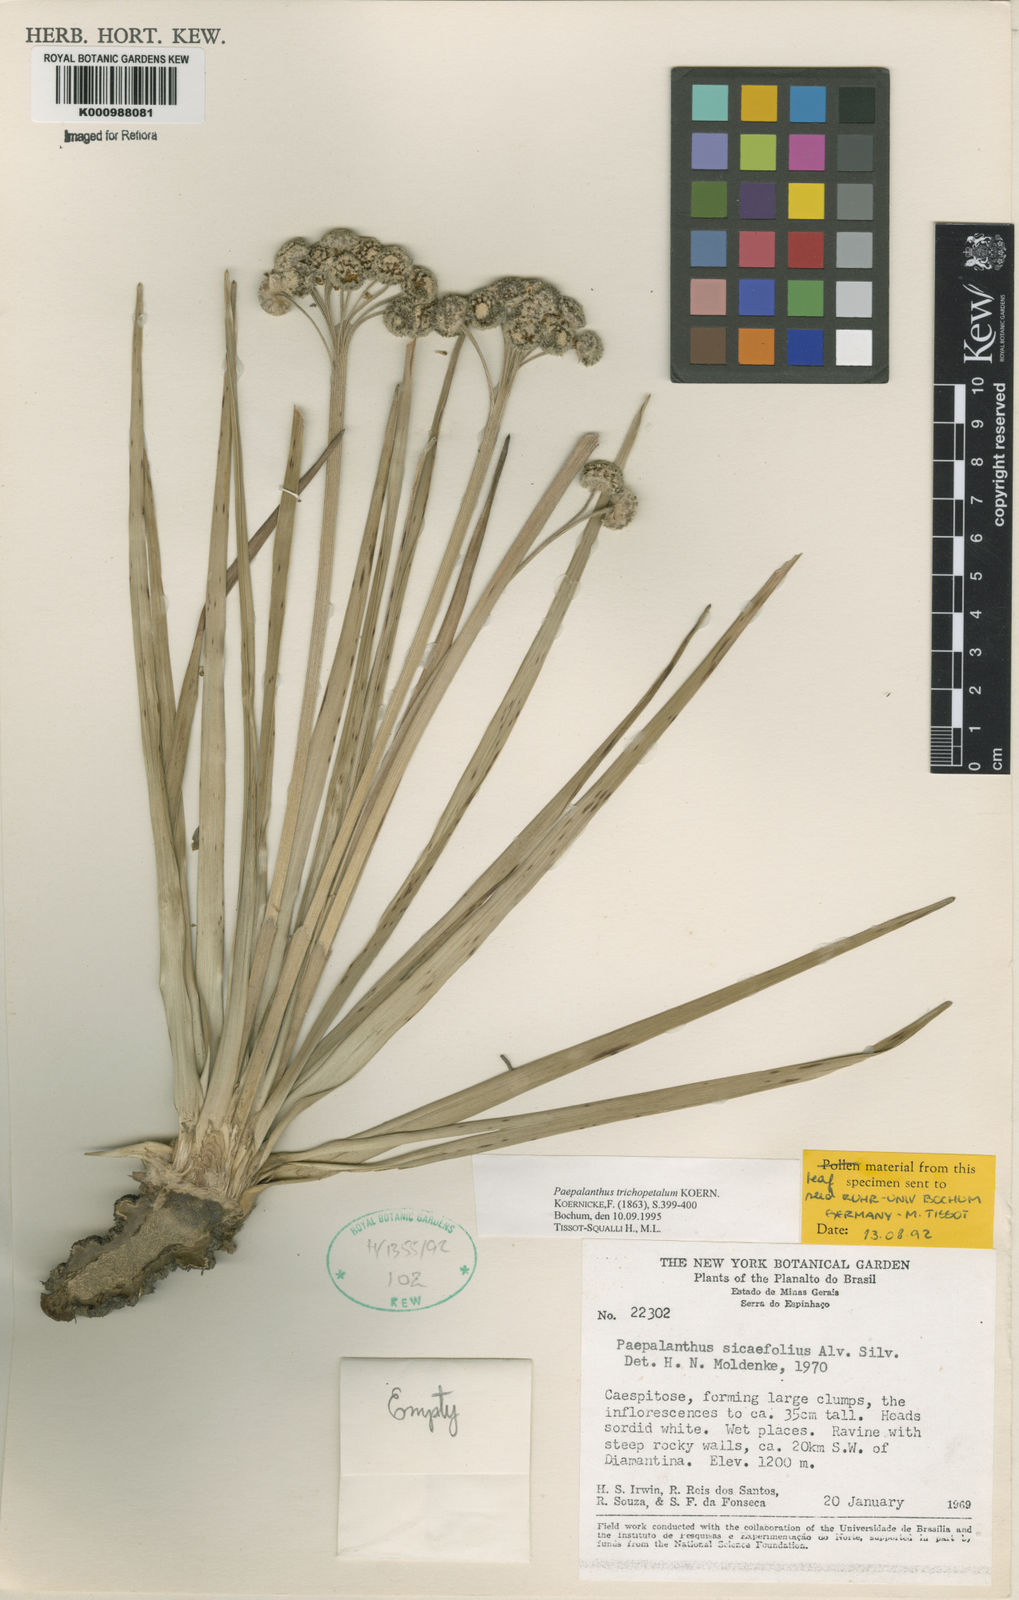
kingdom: Plantae
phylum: Tracheophyta
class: Liliopsida
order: Poales
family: Eriocaulaceae
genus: Paepalanthus
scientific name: Paepalanthus
